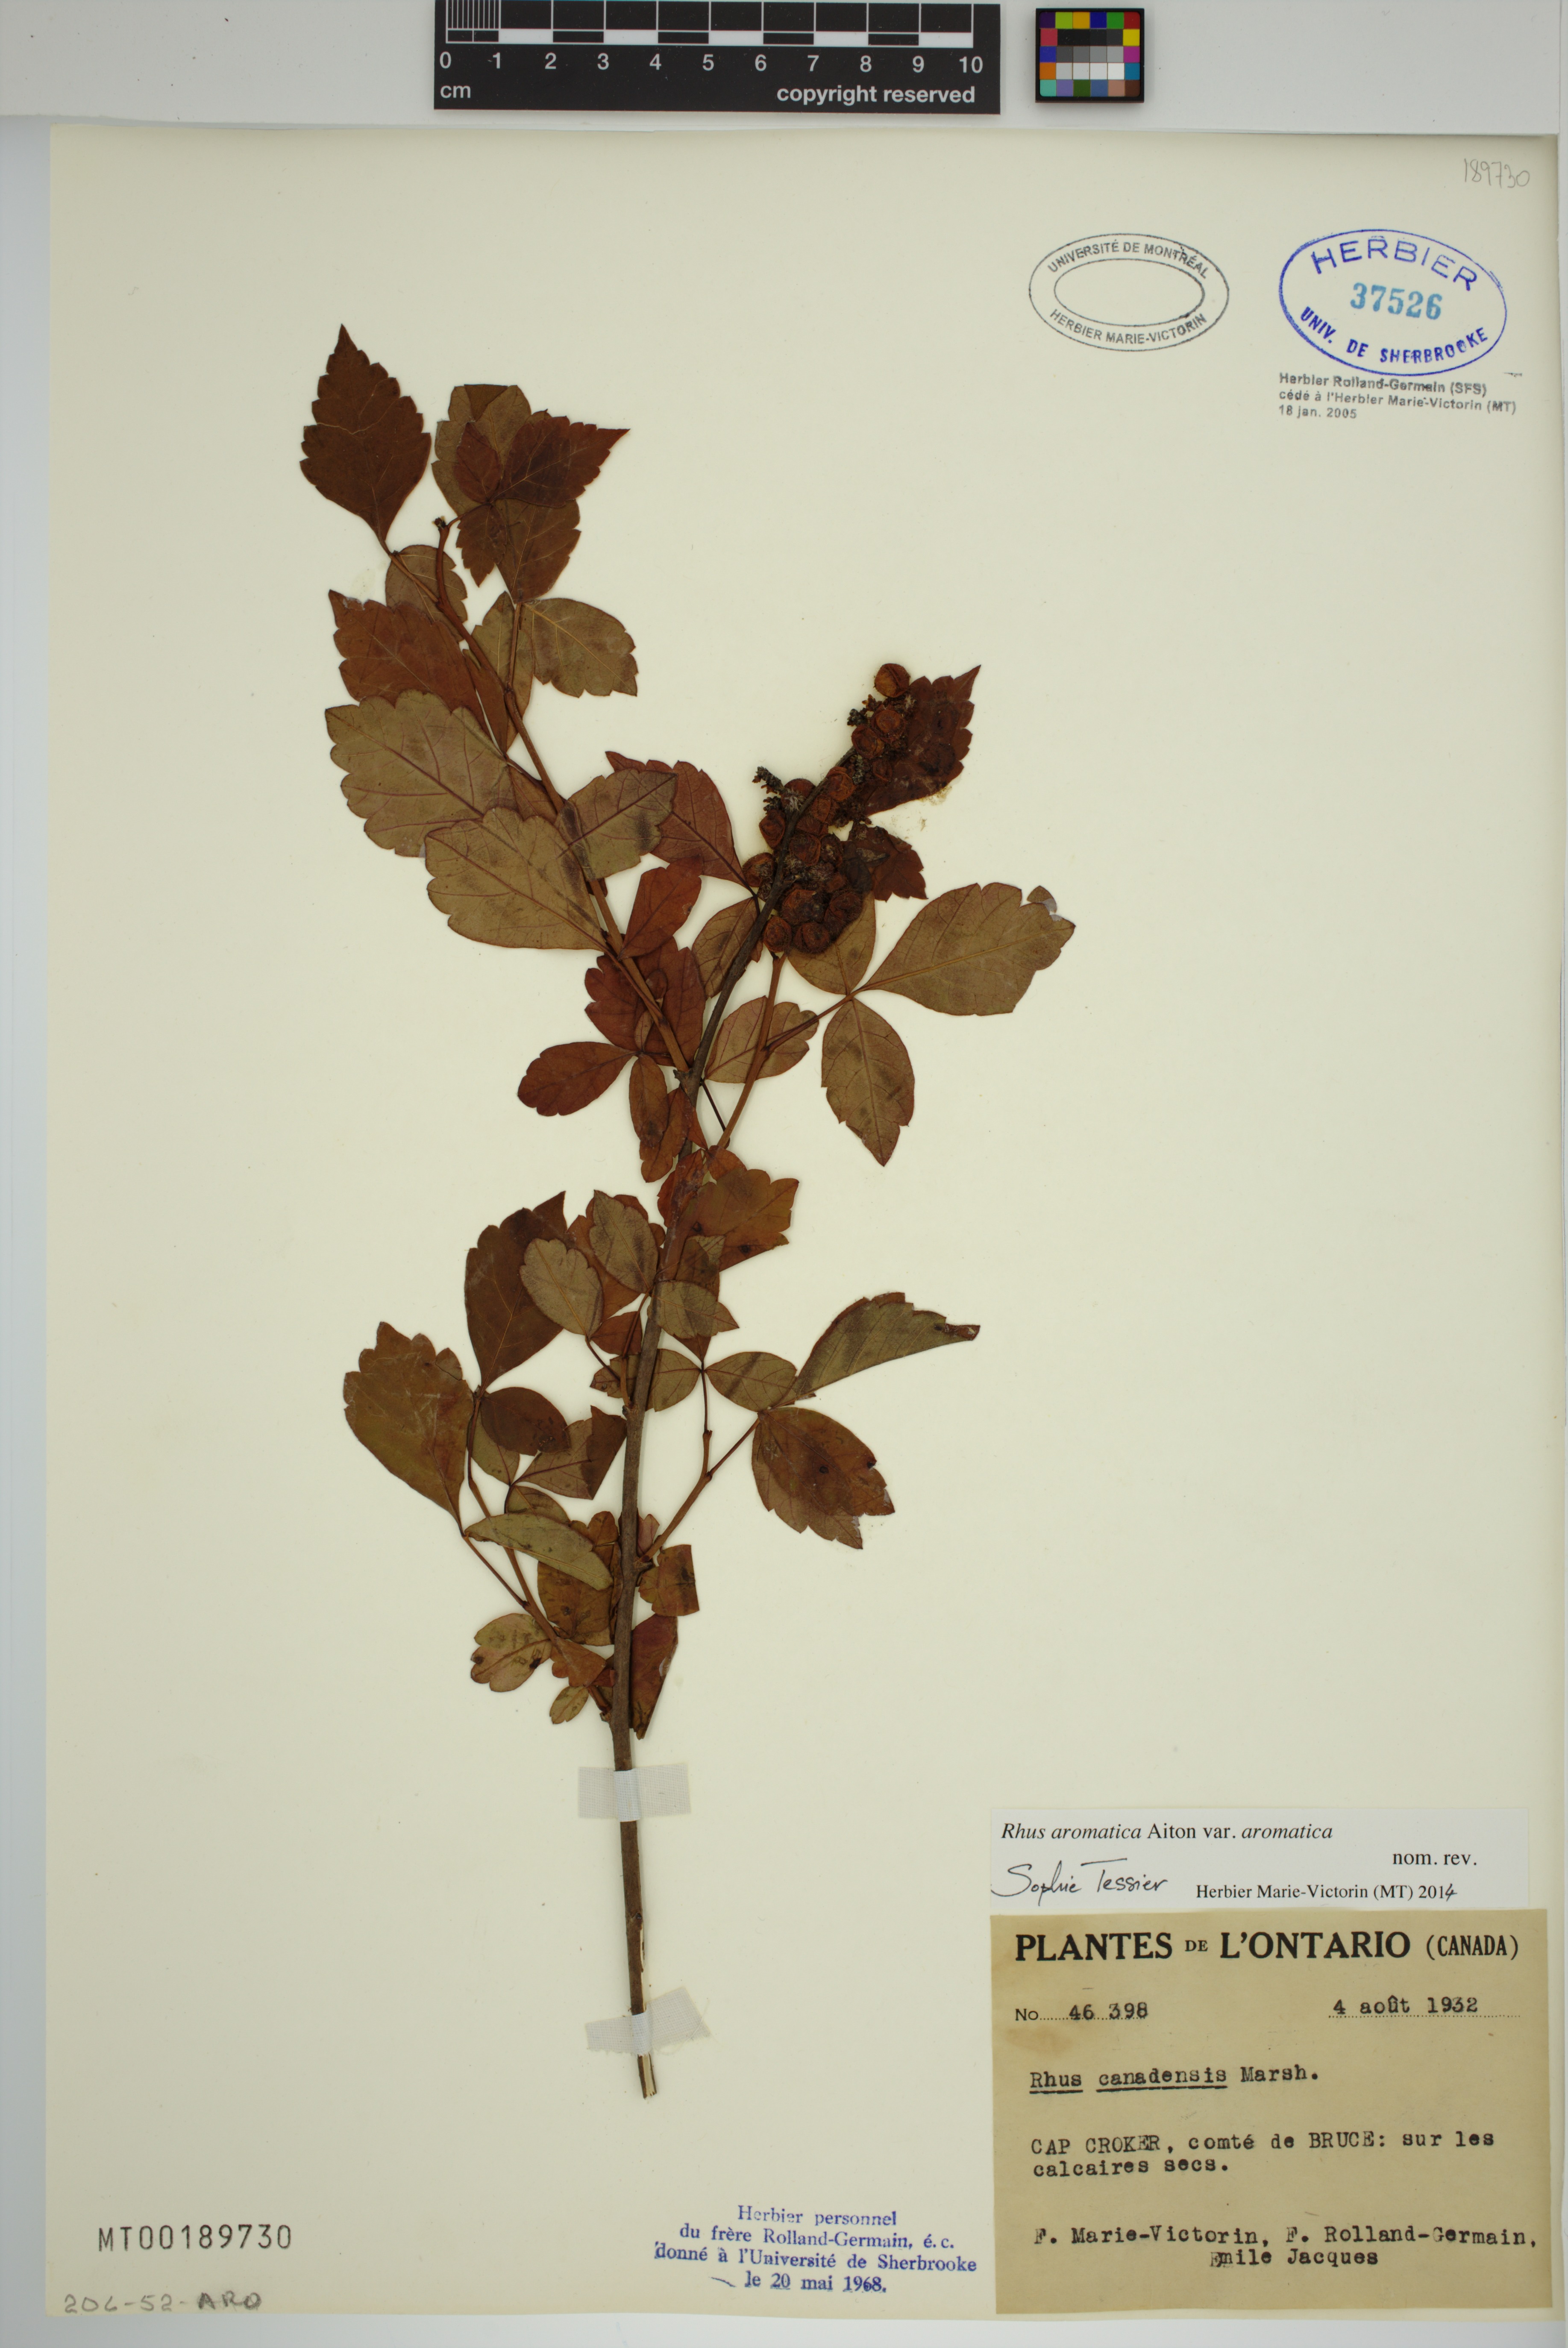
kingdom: Plantae
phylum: Tracheophyta
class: Magnoliopsida
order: Sapindales
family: Anacardiaceae
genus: Rhus
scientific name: Rhus aromatica
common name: Aromatic sumac
